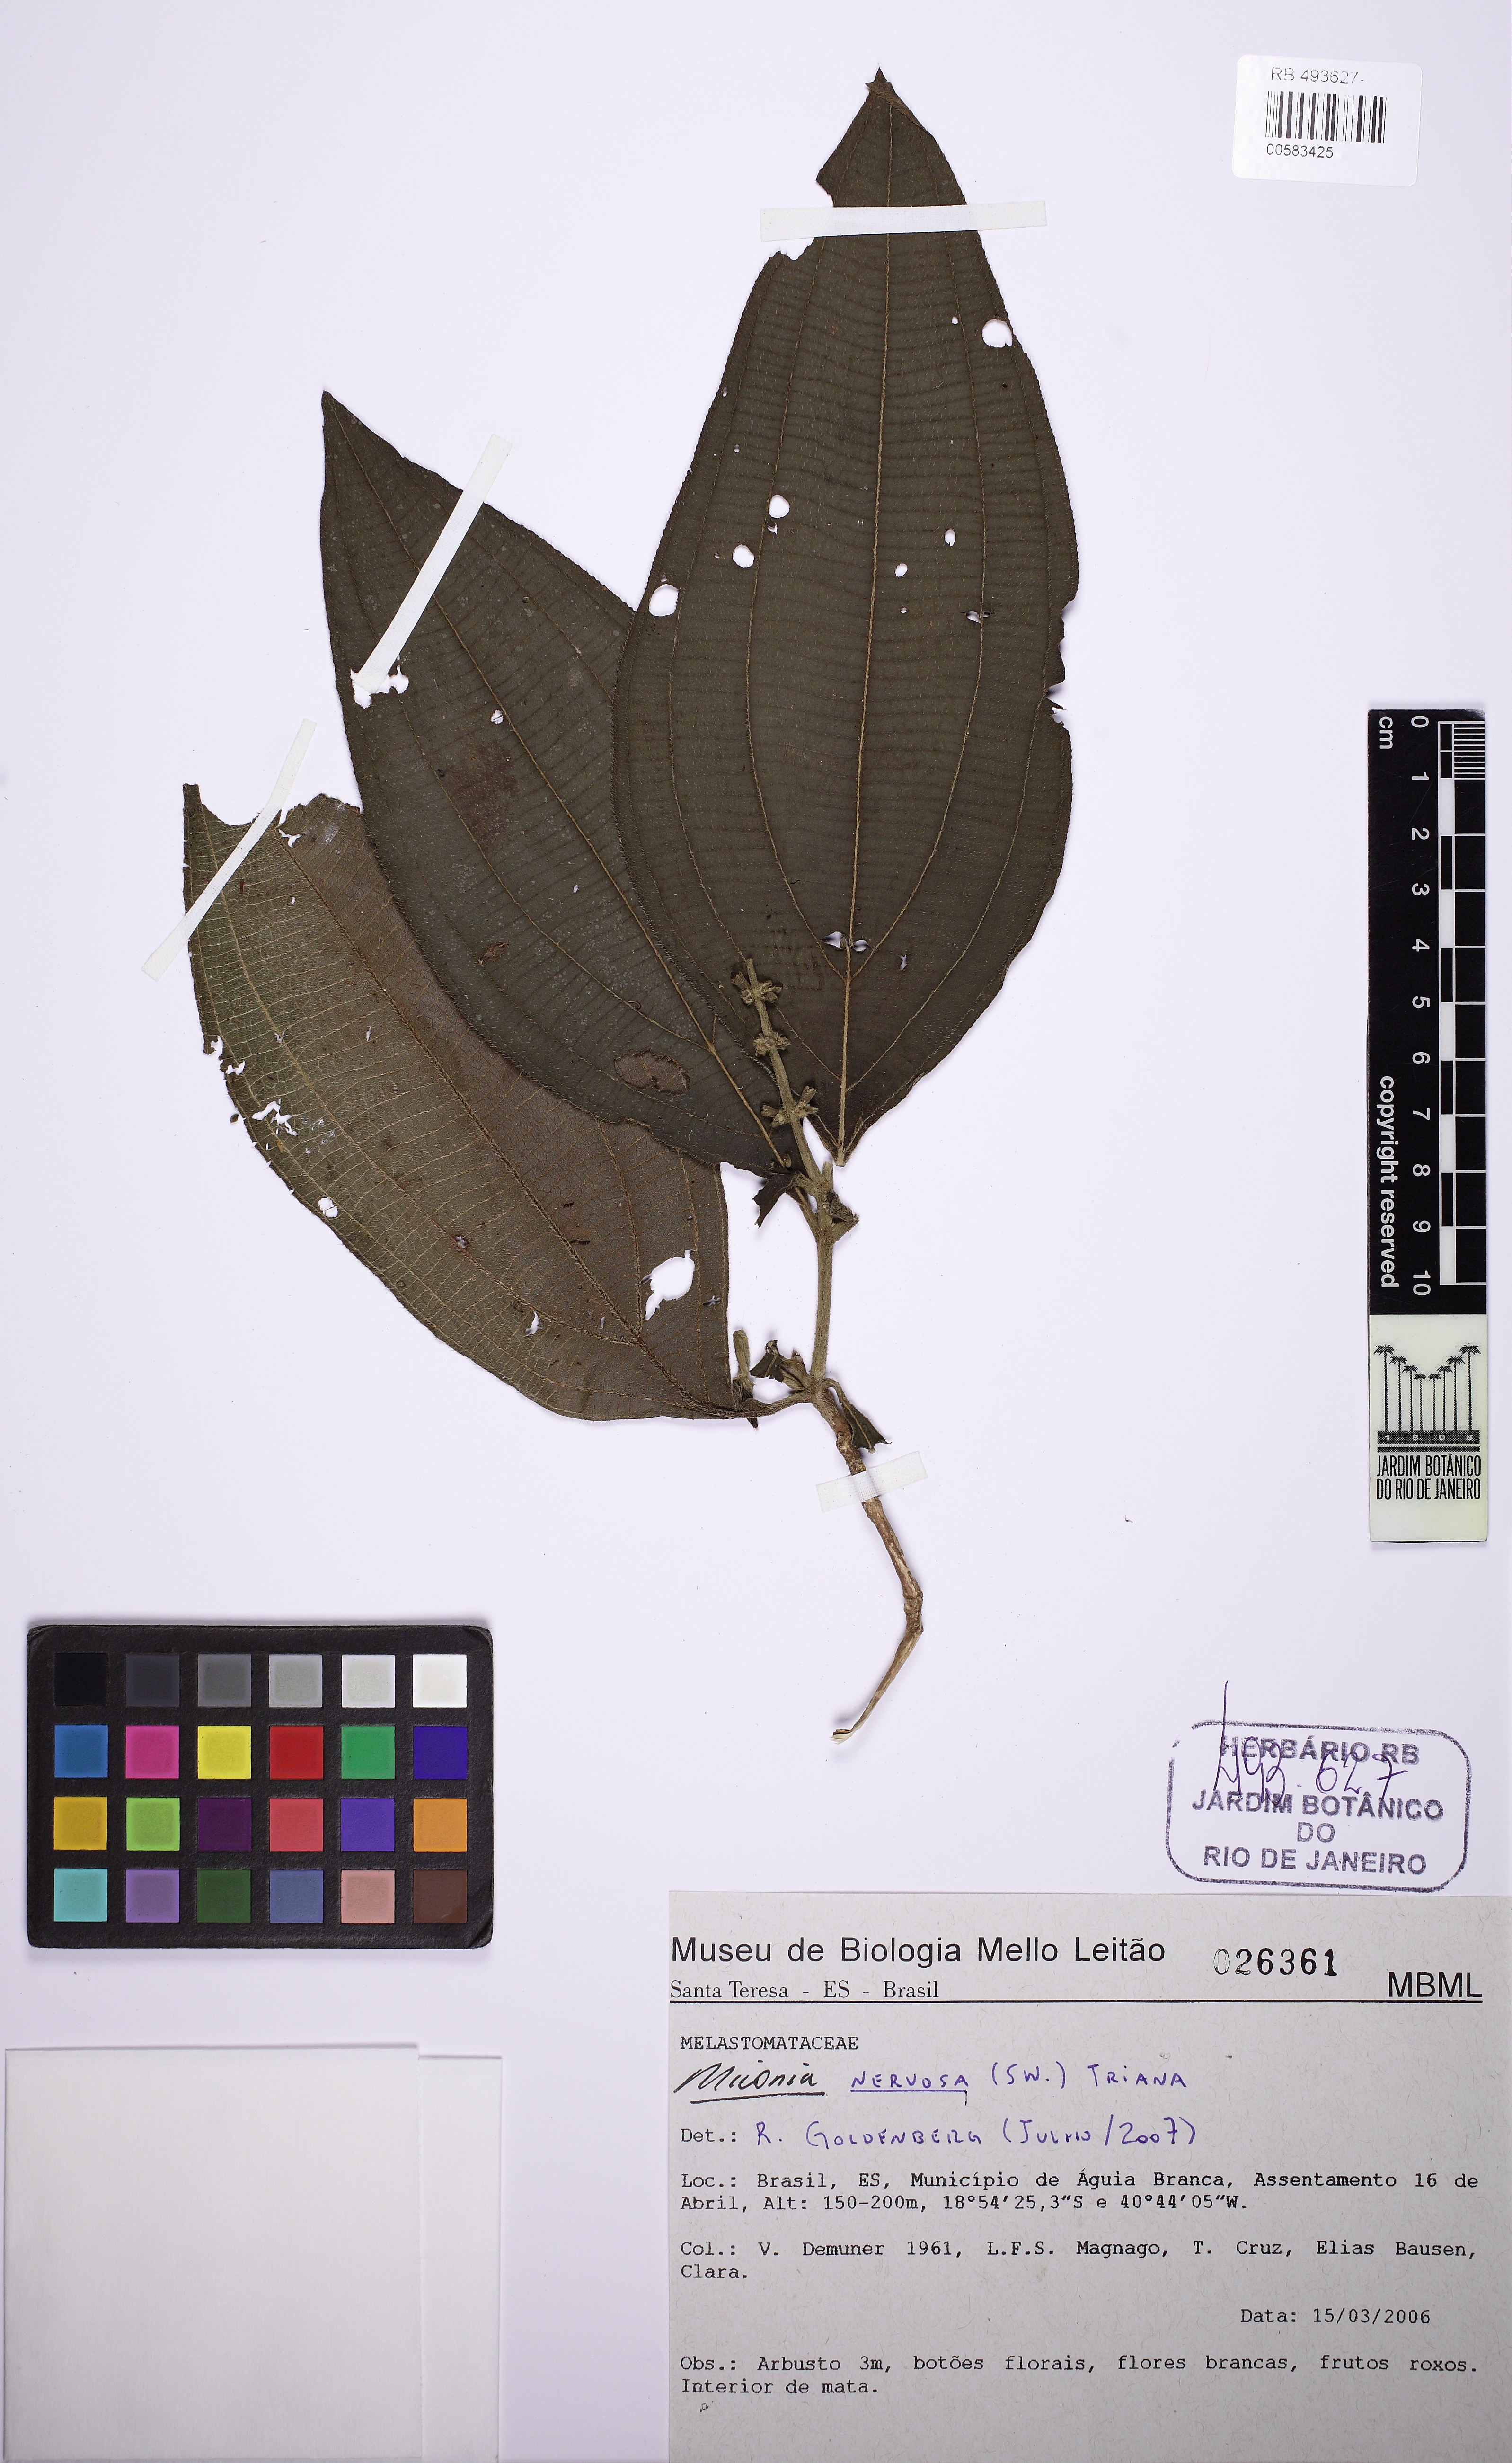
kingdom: Plantae
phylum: Tracheophyta
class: Magnoliopsida
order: Myrtales
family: Melastomataceae
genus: Miconia
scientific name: Miconia nervosa
